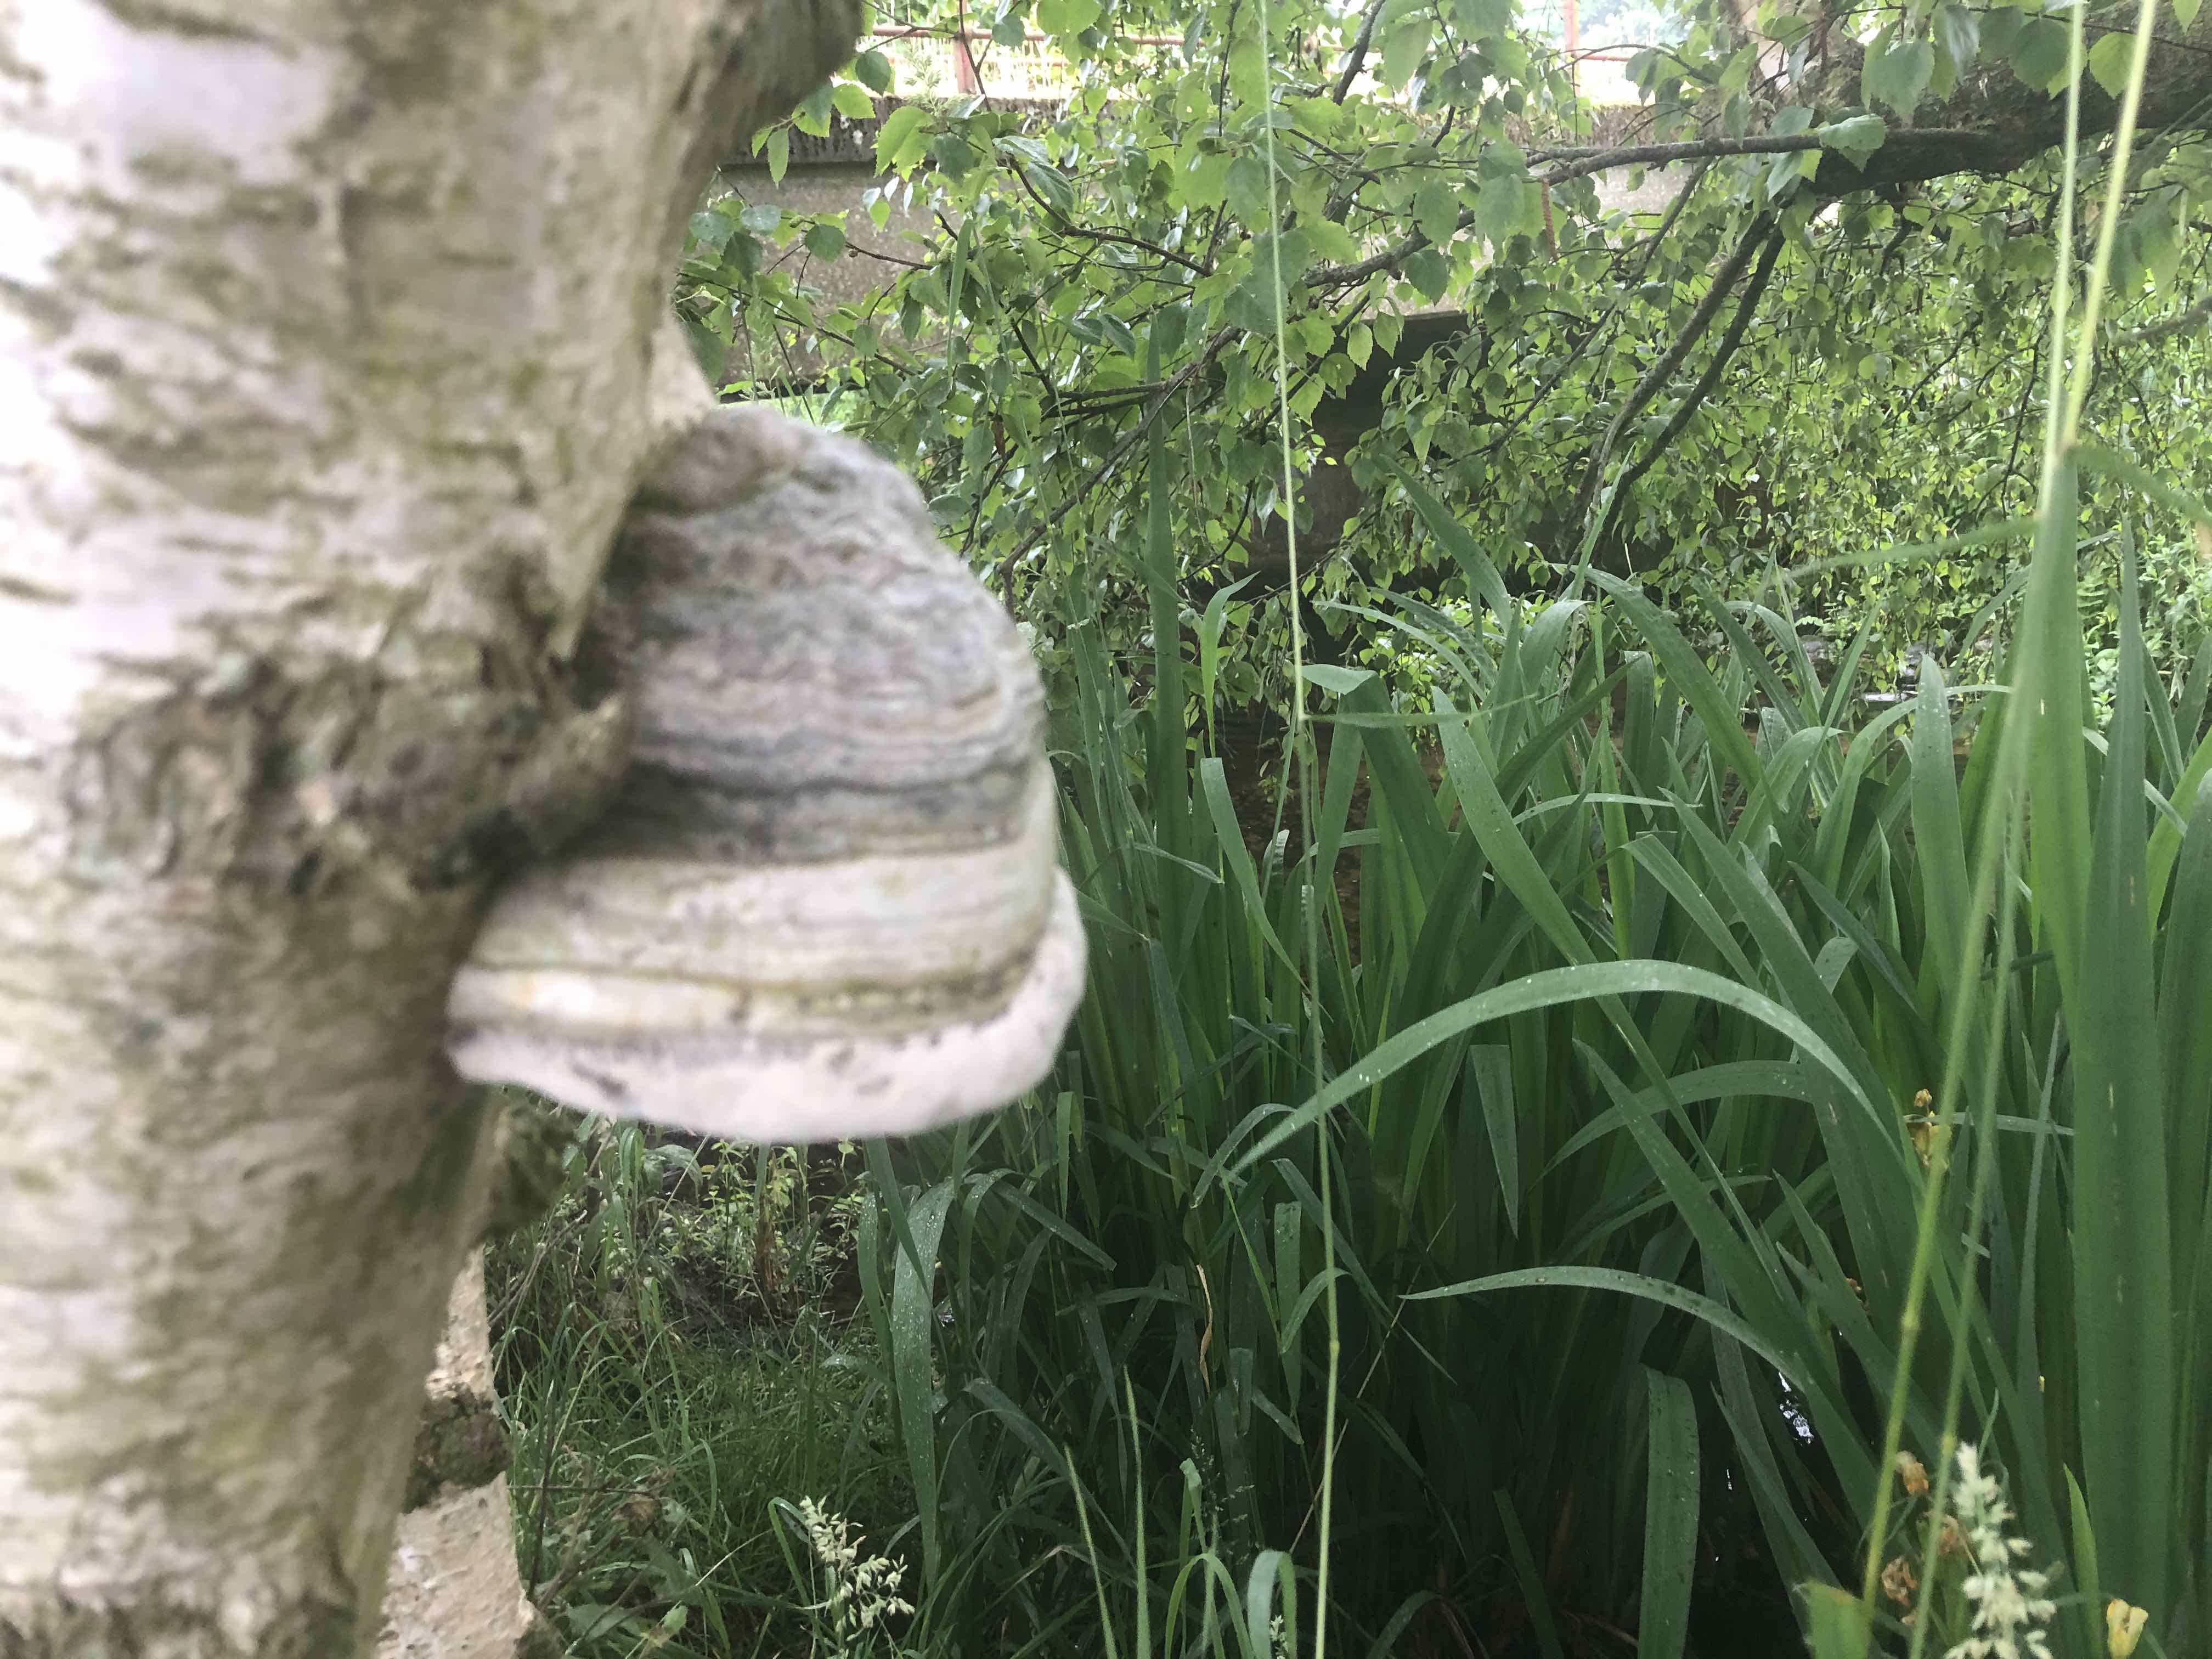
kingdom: Fungi
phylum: Basidiomycota
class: Agaricomycetes
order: Polyporales
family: Polyporaceae
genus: Fomes
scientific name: Fomes fomentarius
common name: tøndersvamp
